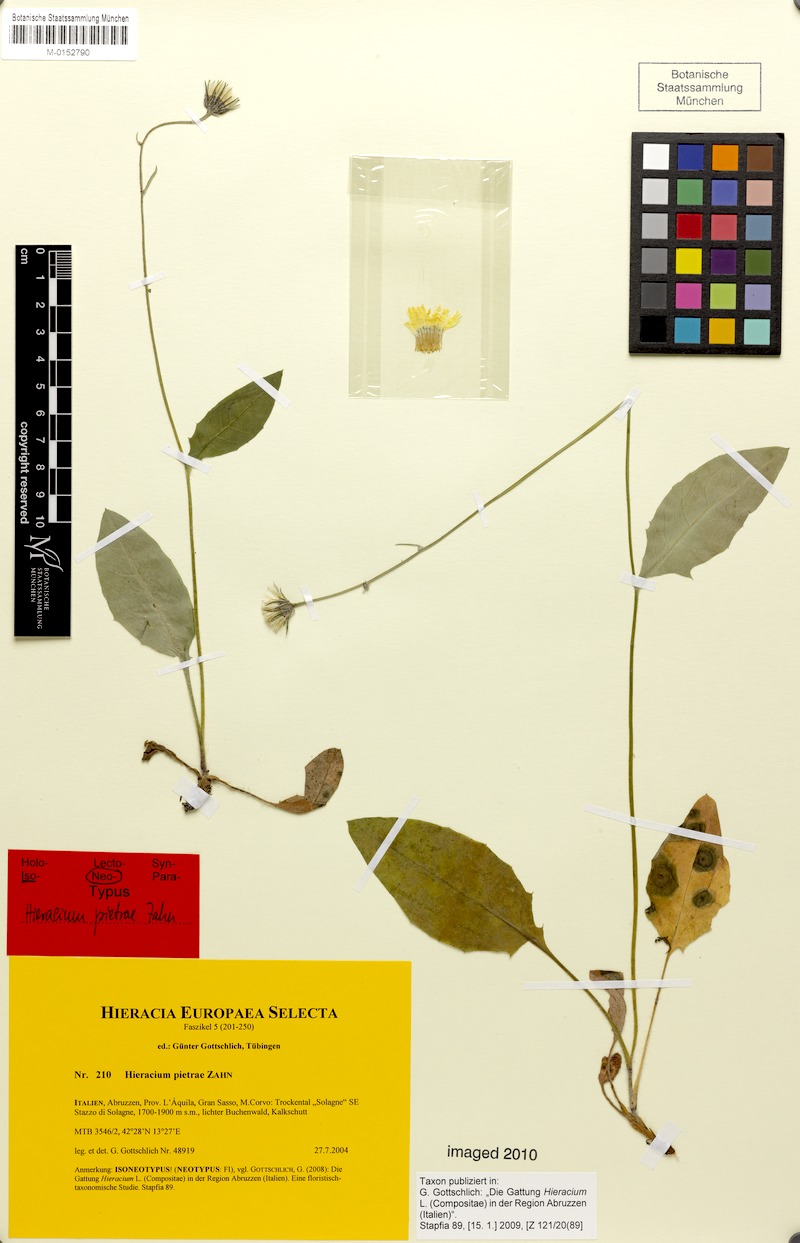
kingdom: Plantae
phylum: Tracheophyta
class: Magnoliopsida
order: Asterales
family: Asteraceae
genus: Hieracium
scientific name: Hieracium pietrae
